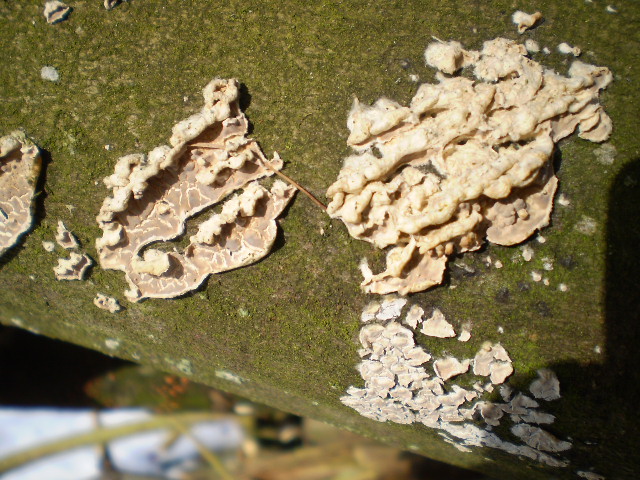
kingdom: Fungi
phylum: Basidiomycota
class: Agaricomycetes
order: Agaricales
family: Physalacriaceae
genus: Cylindrobasidium
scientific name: Cylindrobasidium evolvens
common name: sprækkehinde
